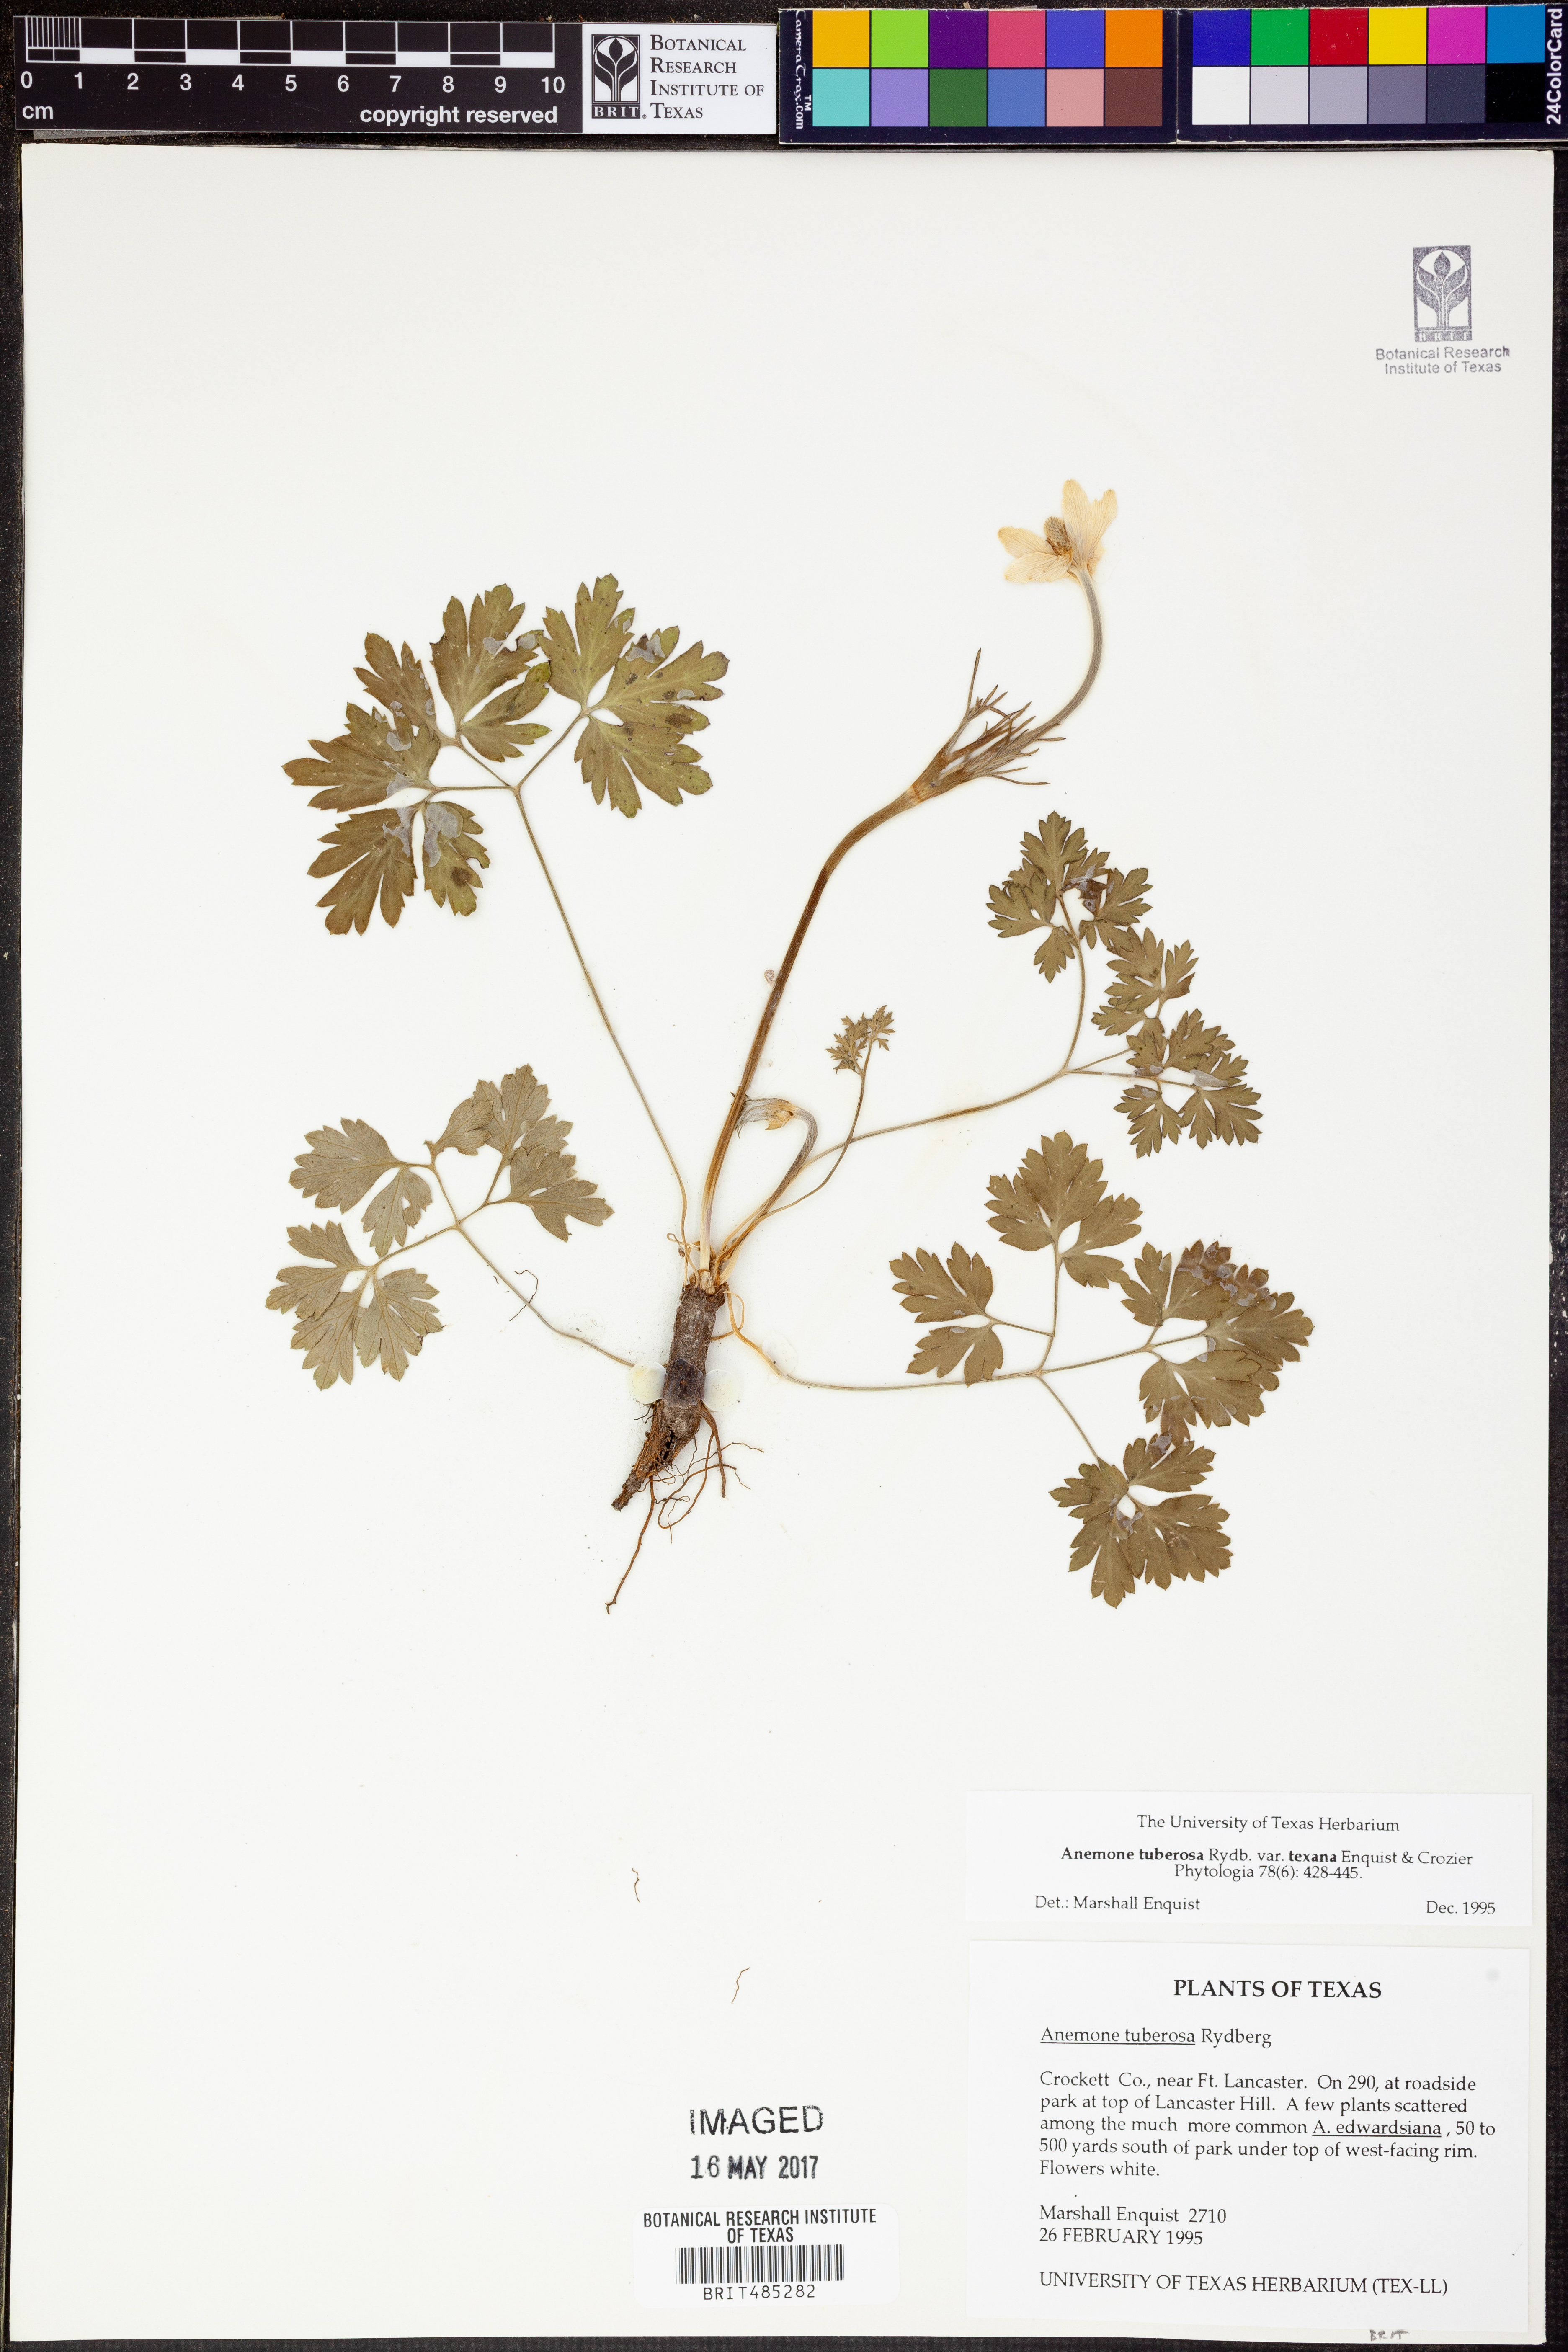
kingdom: Plantae
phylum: Tracheophyta
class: Magnoliopsida
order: Ranunculales
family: Ranunculaceae
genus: Anemone
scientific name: Anemone tuberosa
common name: Desert anemone
